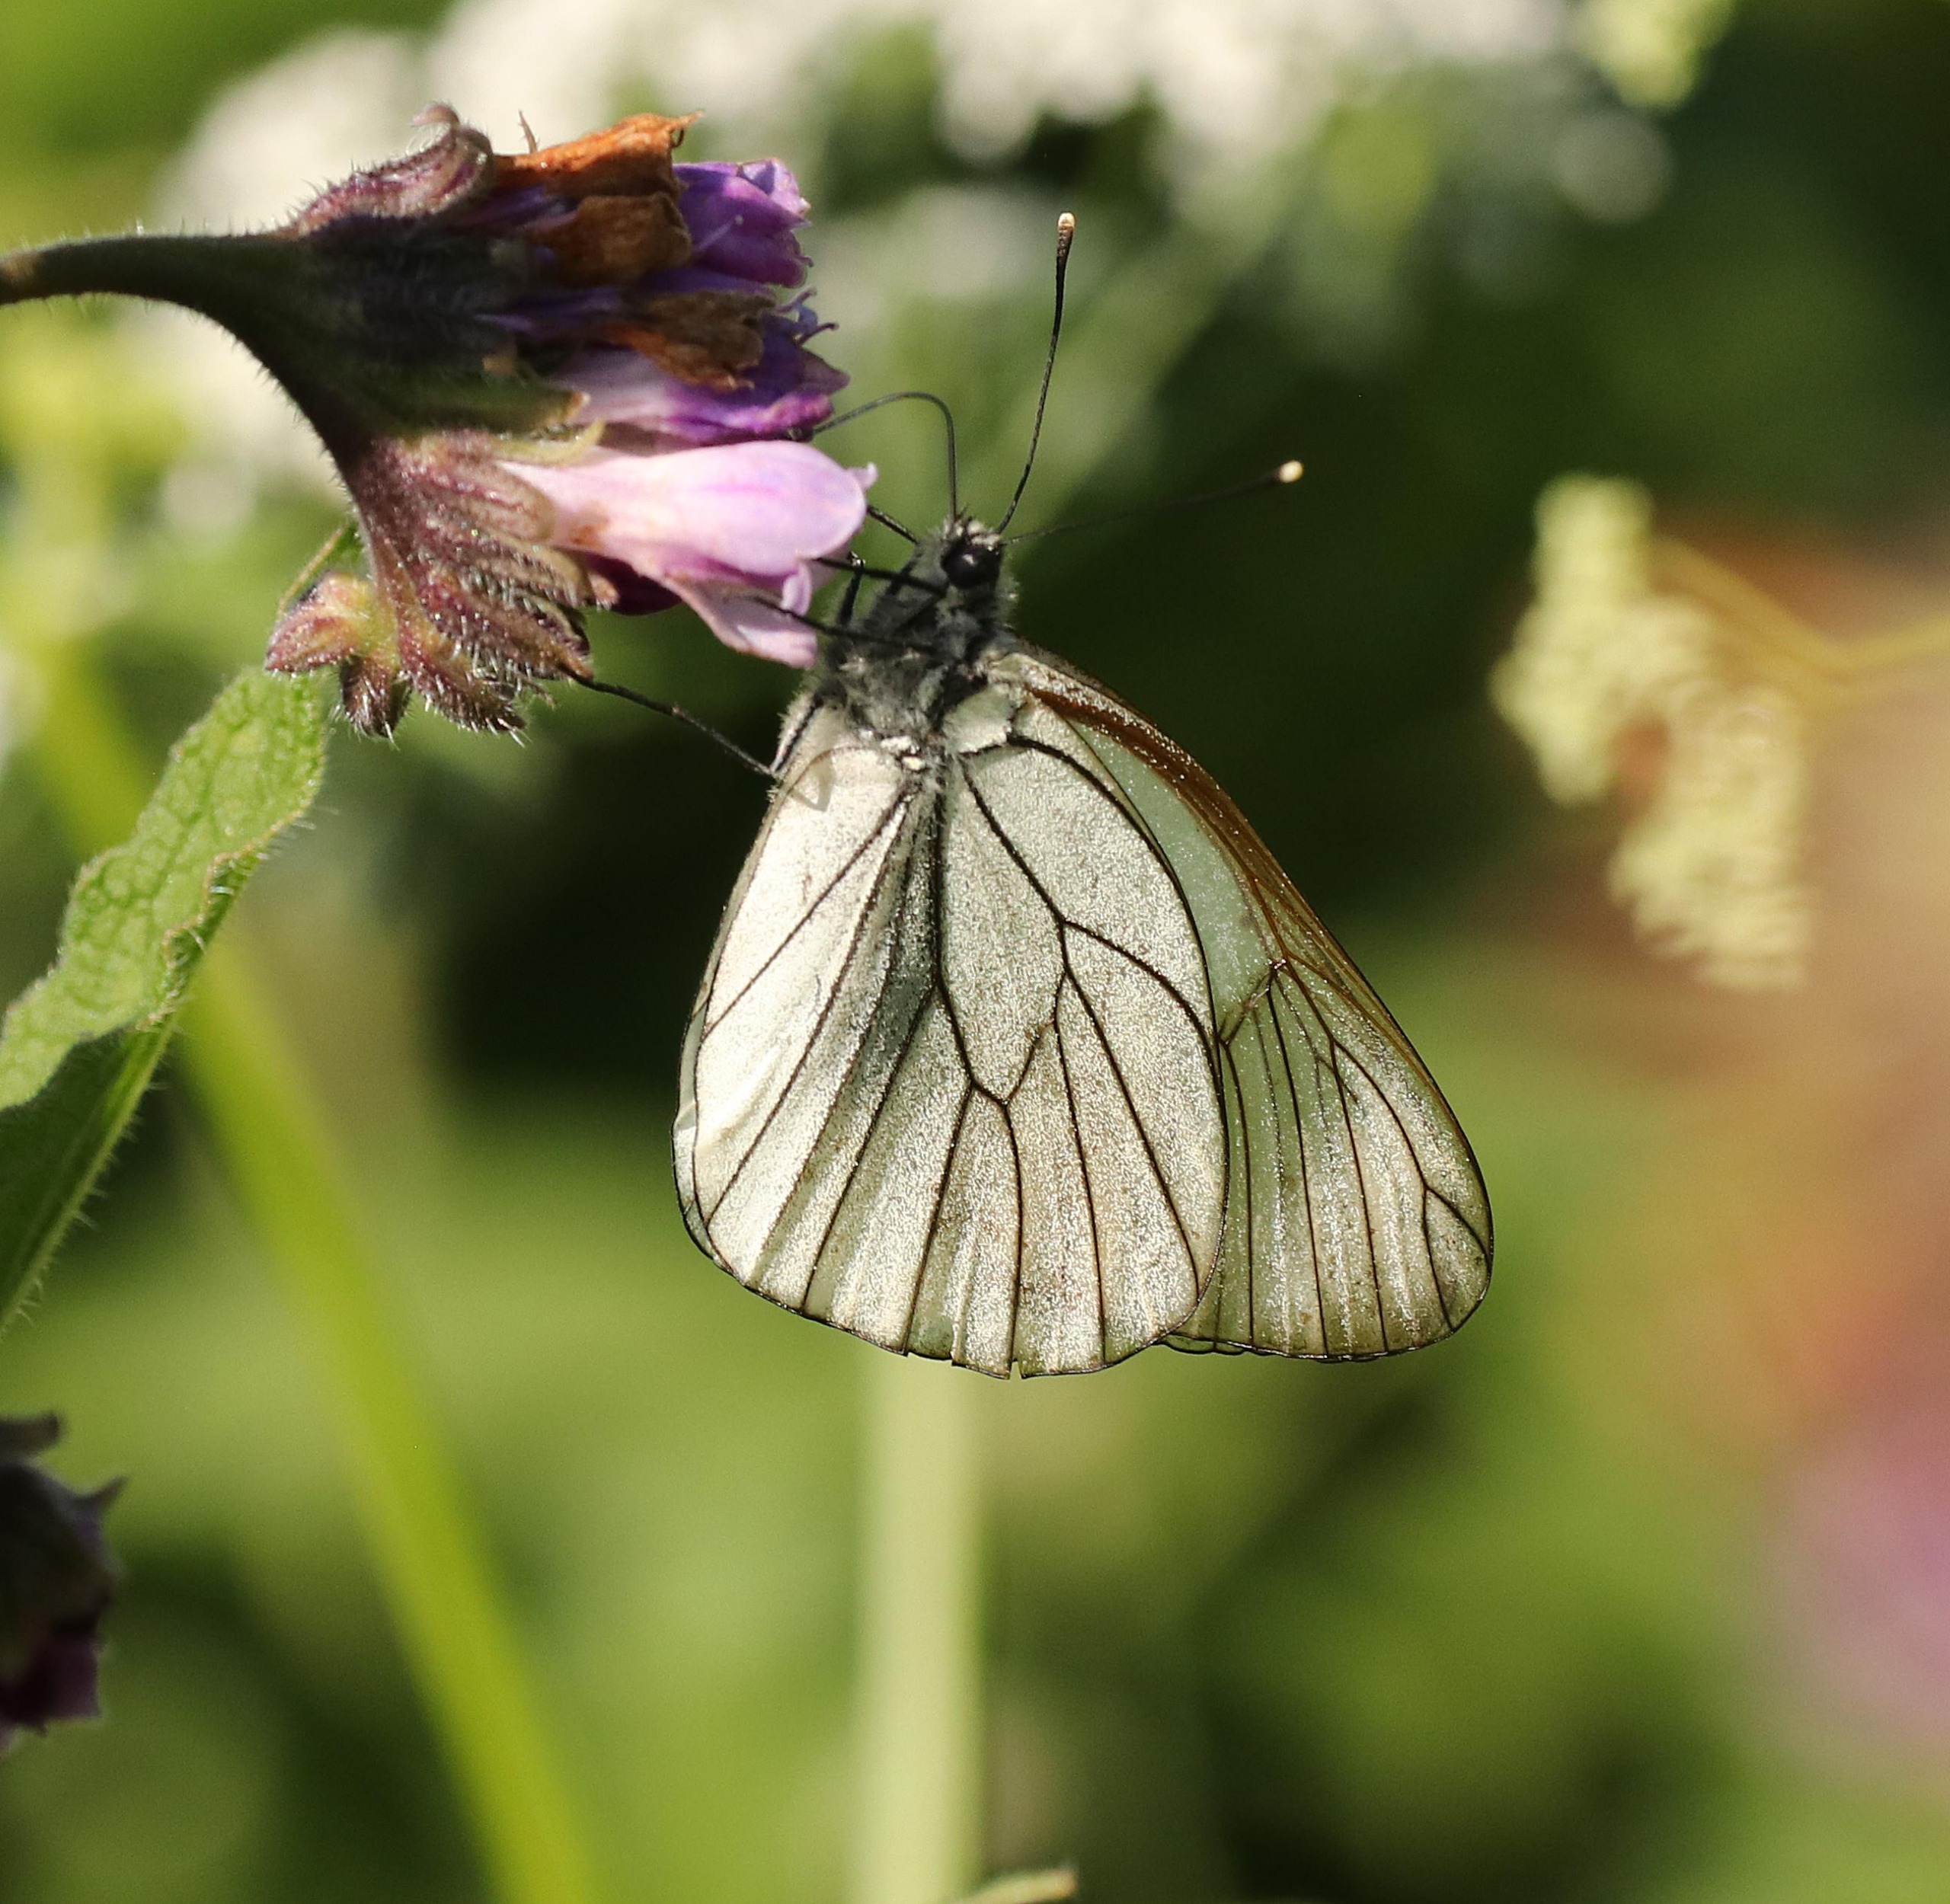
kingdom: Animalia
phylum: Arthropoda
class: Insecta
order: Lepidoptera
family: Pieridae
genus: Aporia
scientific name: Aporia crataegi
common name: Sortåret hvidvinge
